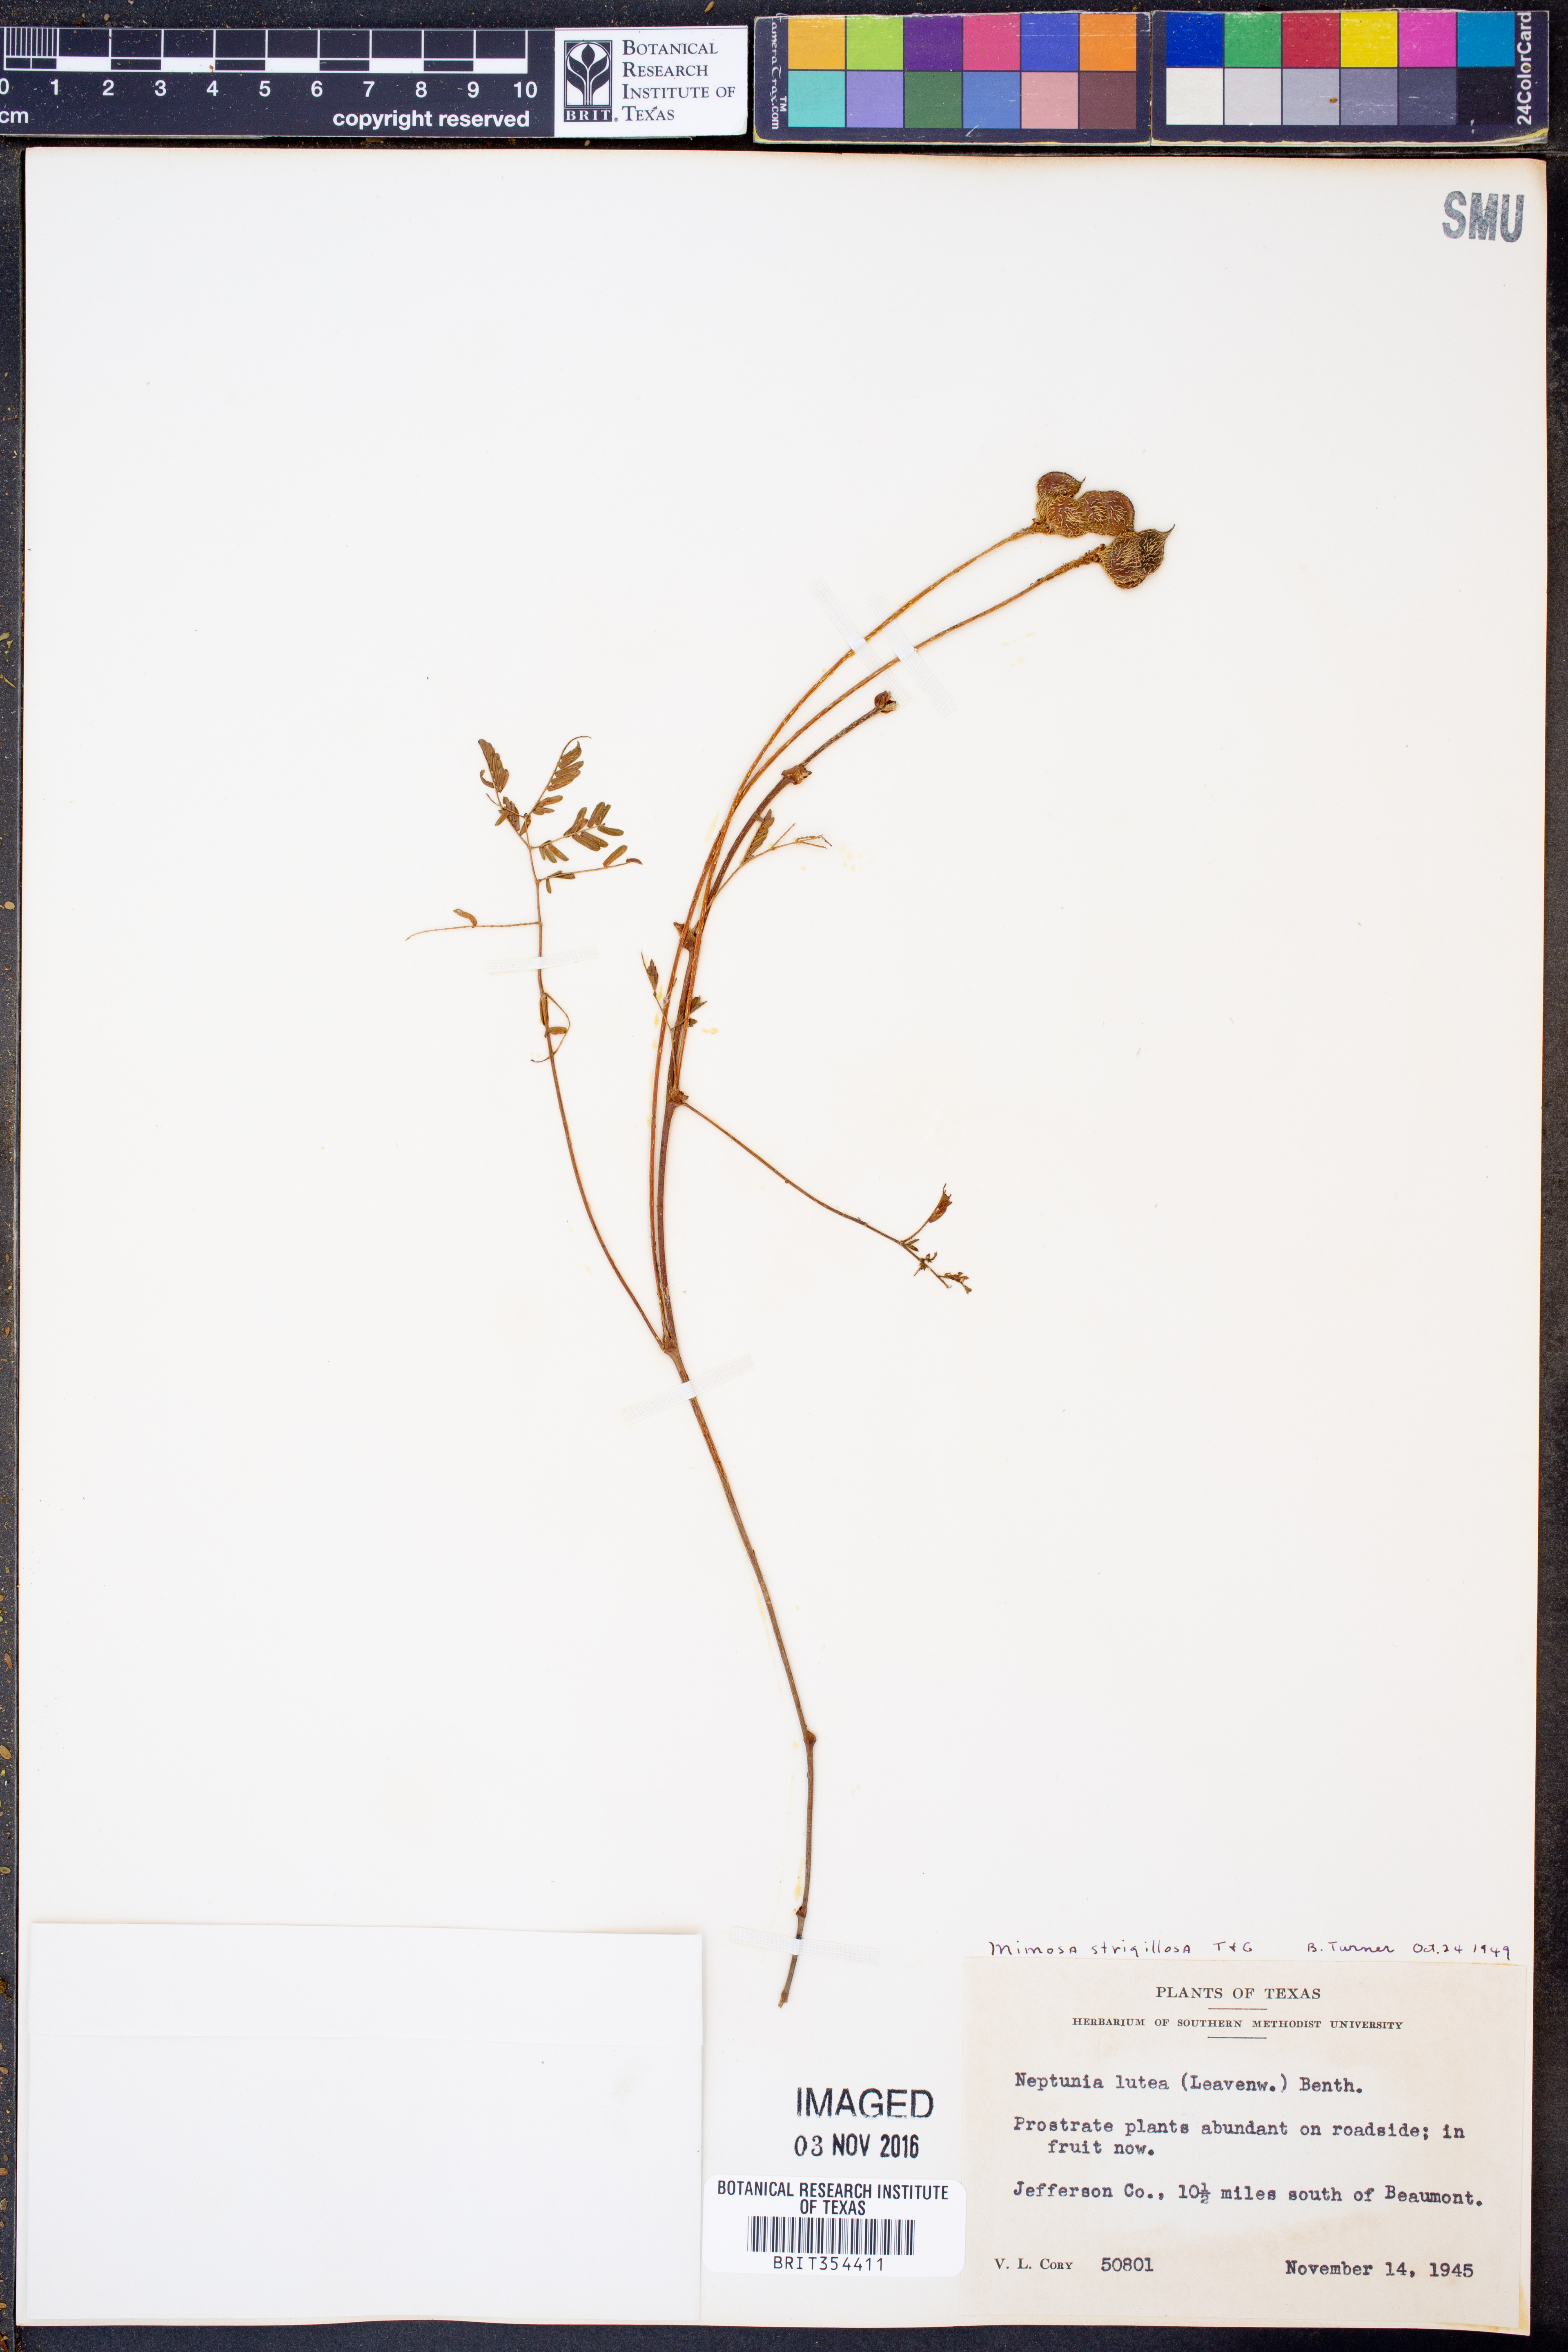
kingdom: Plantae
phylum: Tracheophyta
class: Magnoliopsida
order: Fabales
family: Fabaceae
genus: Mimosa
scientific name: Mimosa strigillosa
